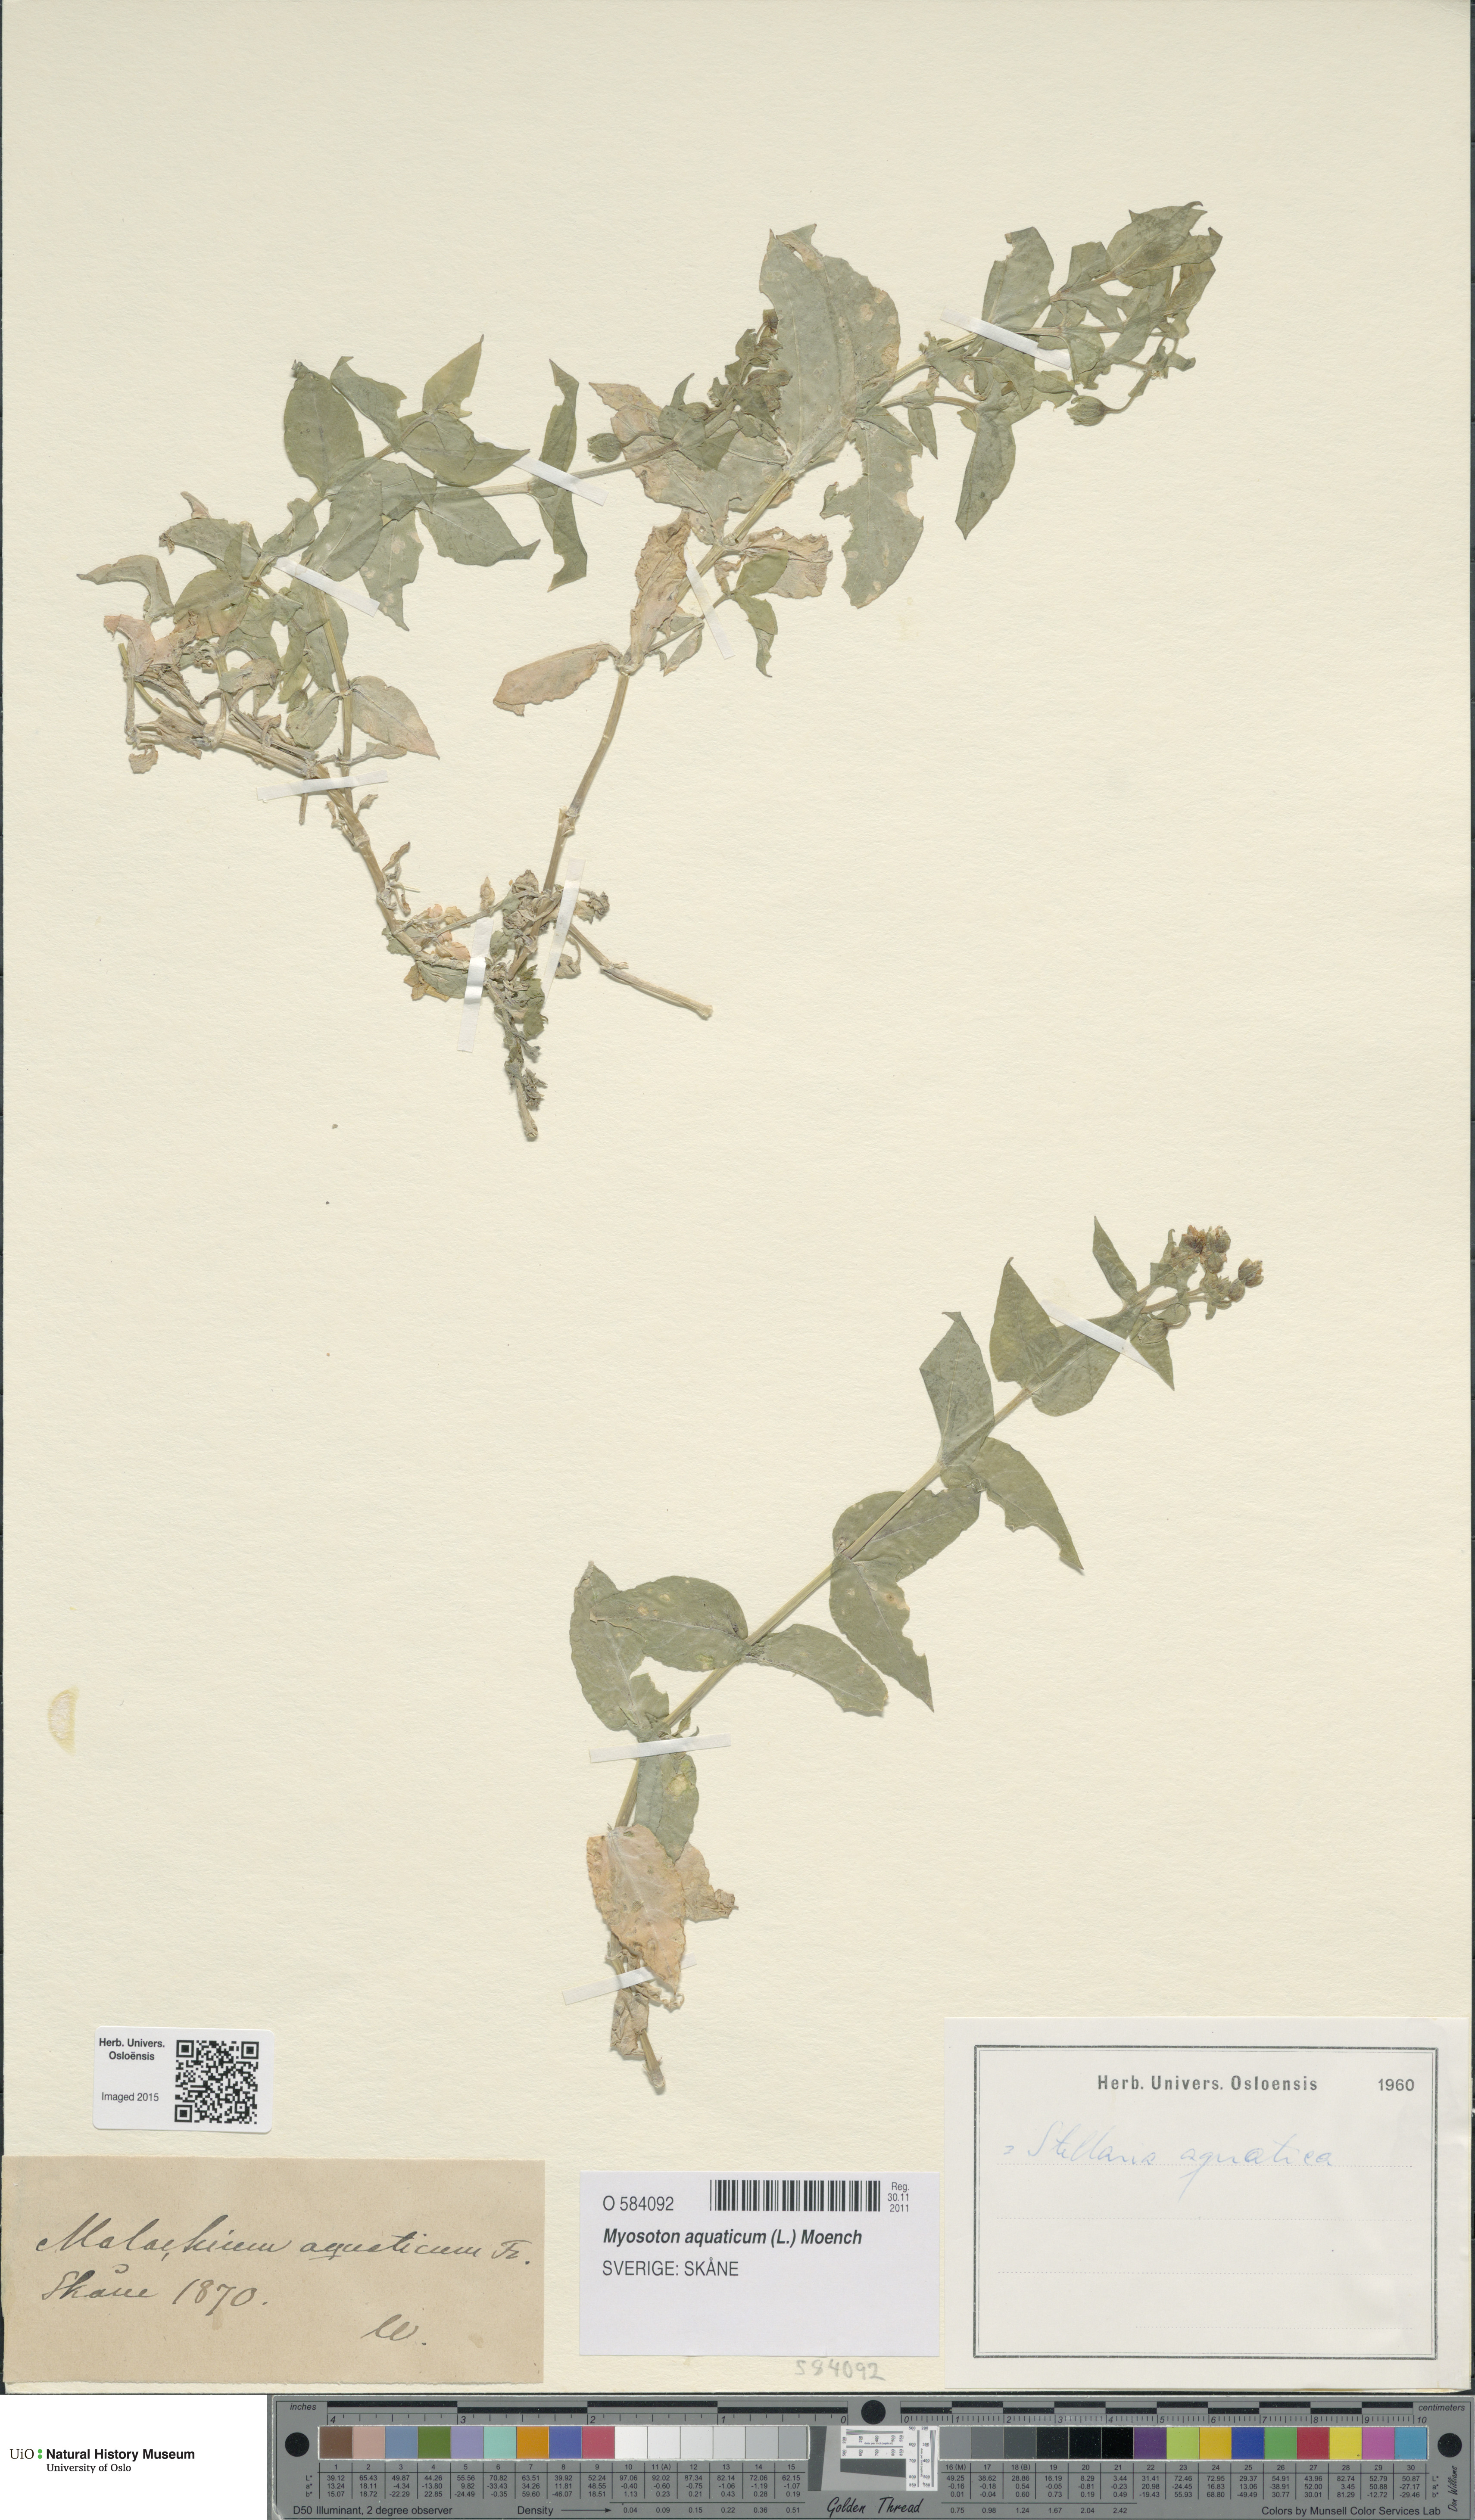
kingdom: Plantae
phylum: Tracheophyta
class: Magnoliopsida
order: Caryophyllales
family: Caryophyllaceae
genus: Stellaria
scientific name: Stellaria aquatica
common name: Water chickweed
